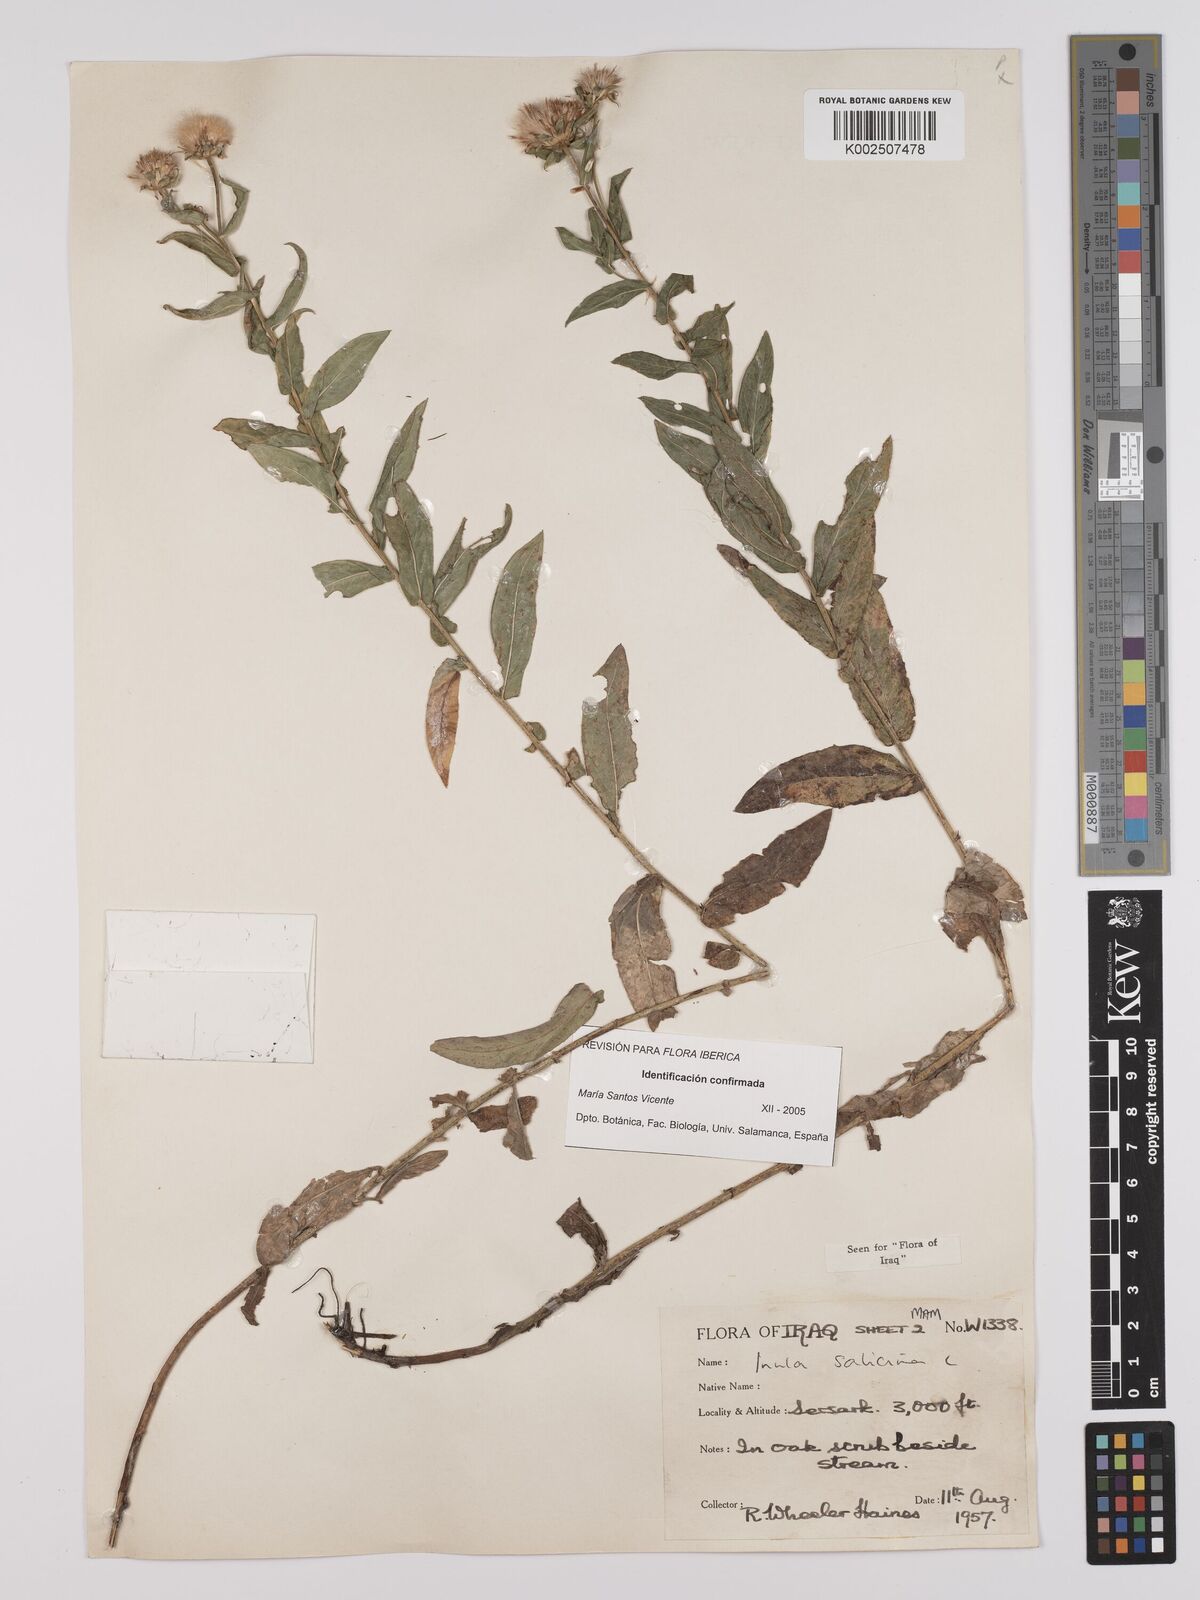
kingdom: Plantae
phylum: Tracheophyta
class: Magnoliopsida
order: Asterales
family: Asteraceae
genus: Pentanema
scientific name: Pentanema salicinum
